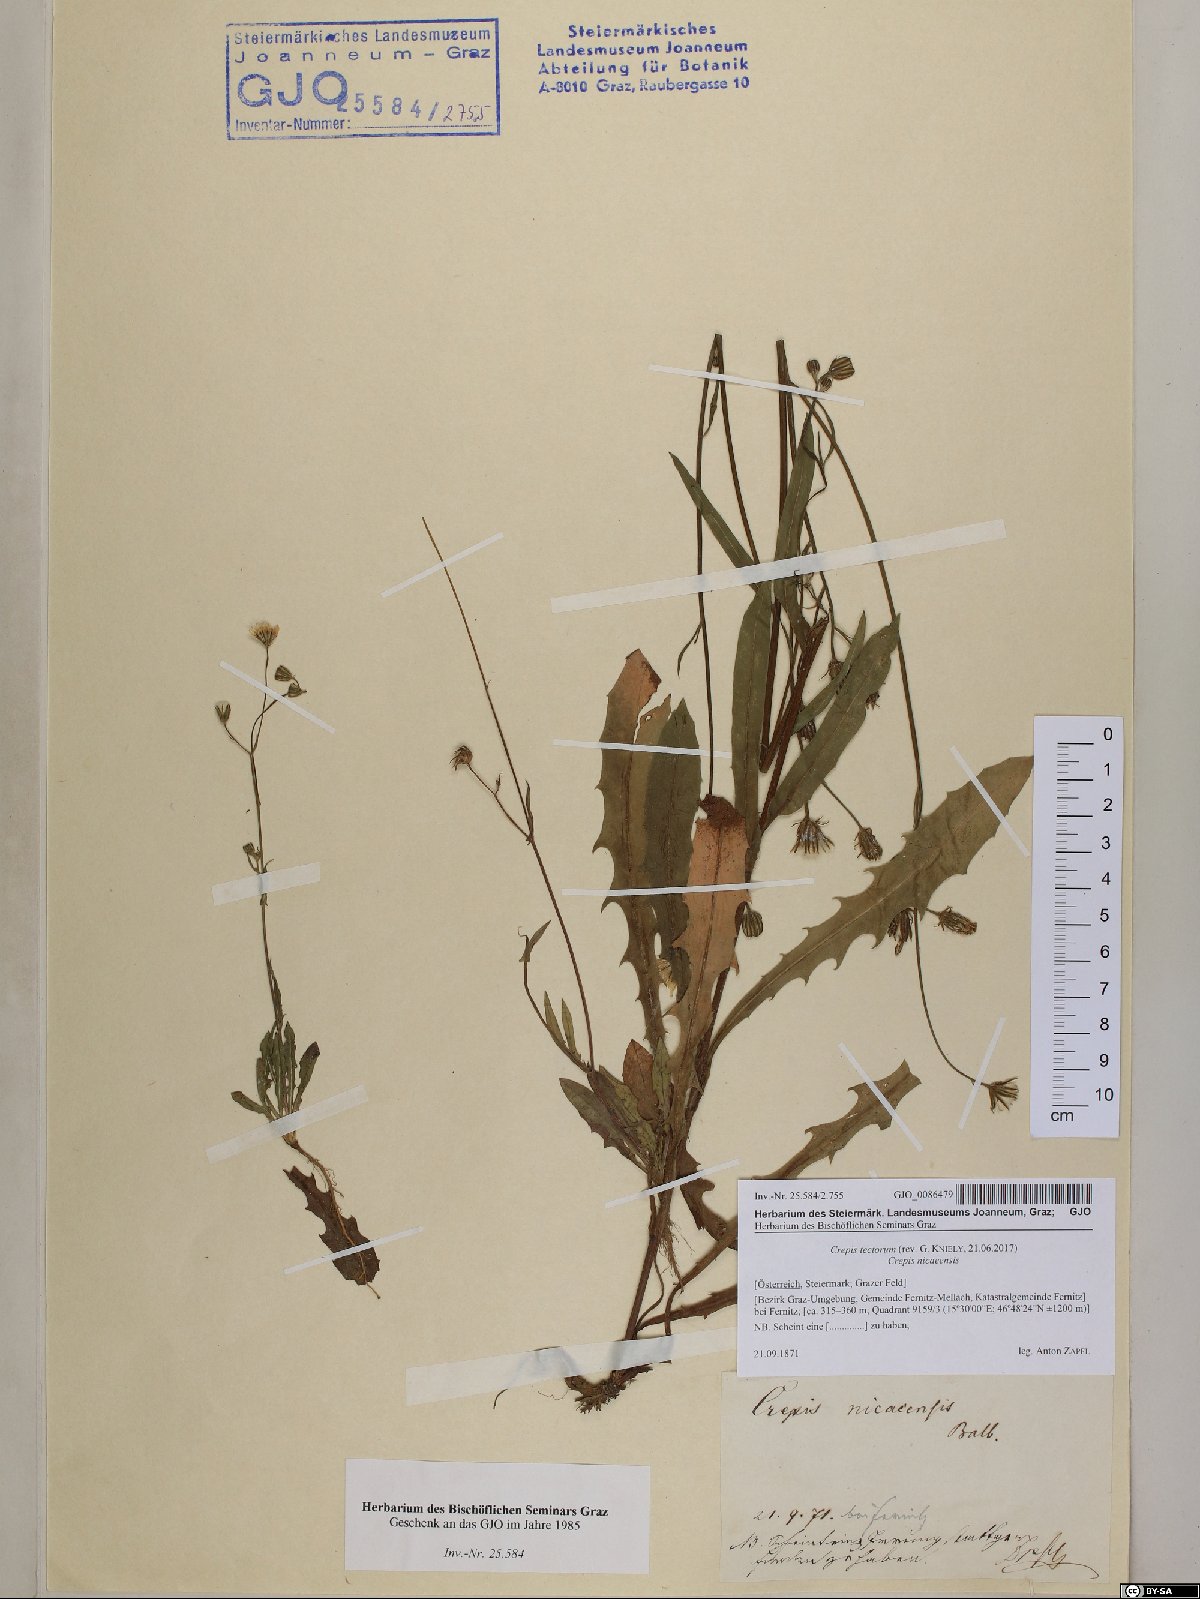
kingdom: Plantae
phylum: Tracheophyta
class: Magnoliopsida
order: Asterales
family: Asteraceae
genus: Crepis
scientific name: Crepis tectorum
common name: Narrow-leaved hawk's-beard
